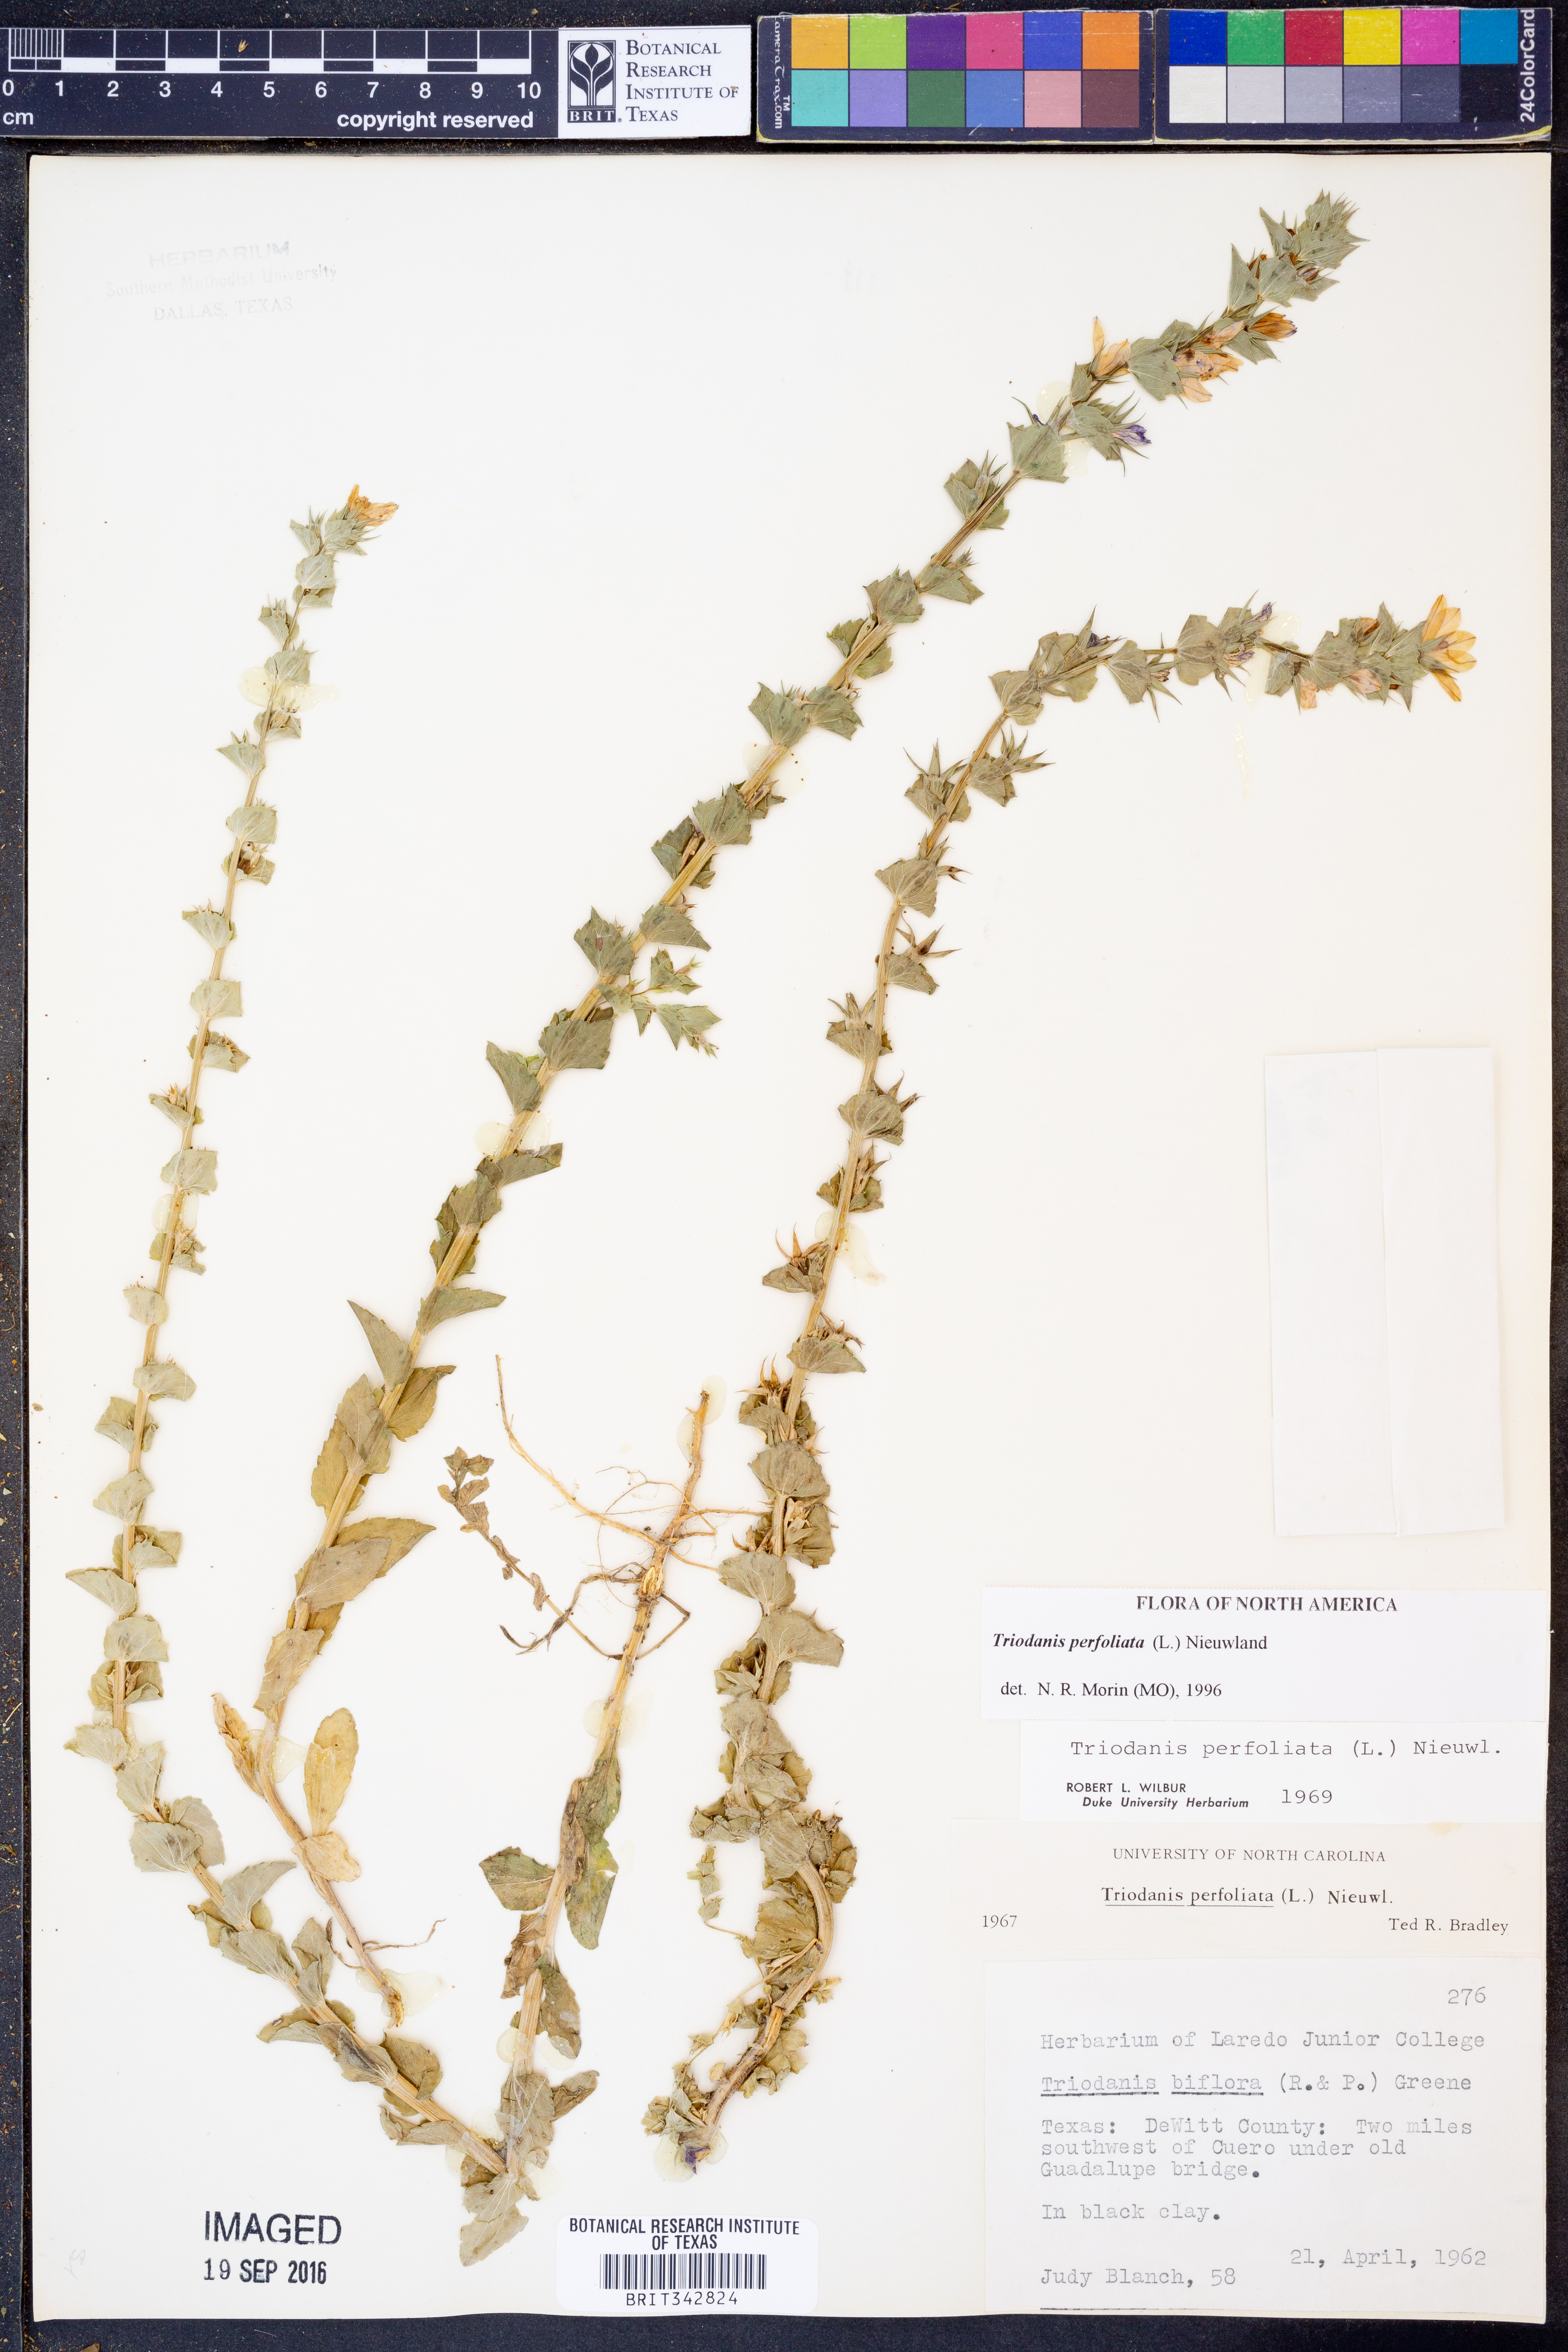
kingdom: Plantae
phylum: Tracheophyta
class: Magnoliopsida
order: Asterales
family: Campanulaceae
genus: Triodanis
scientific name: Triodanis perfoliata
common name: Clasping venus' looking-glass
